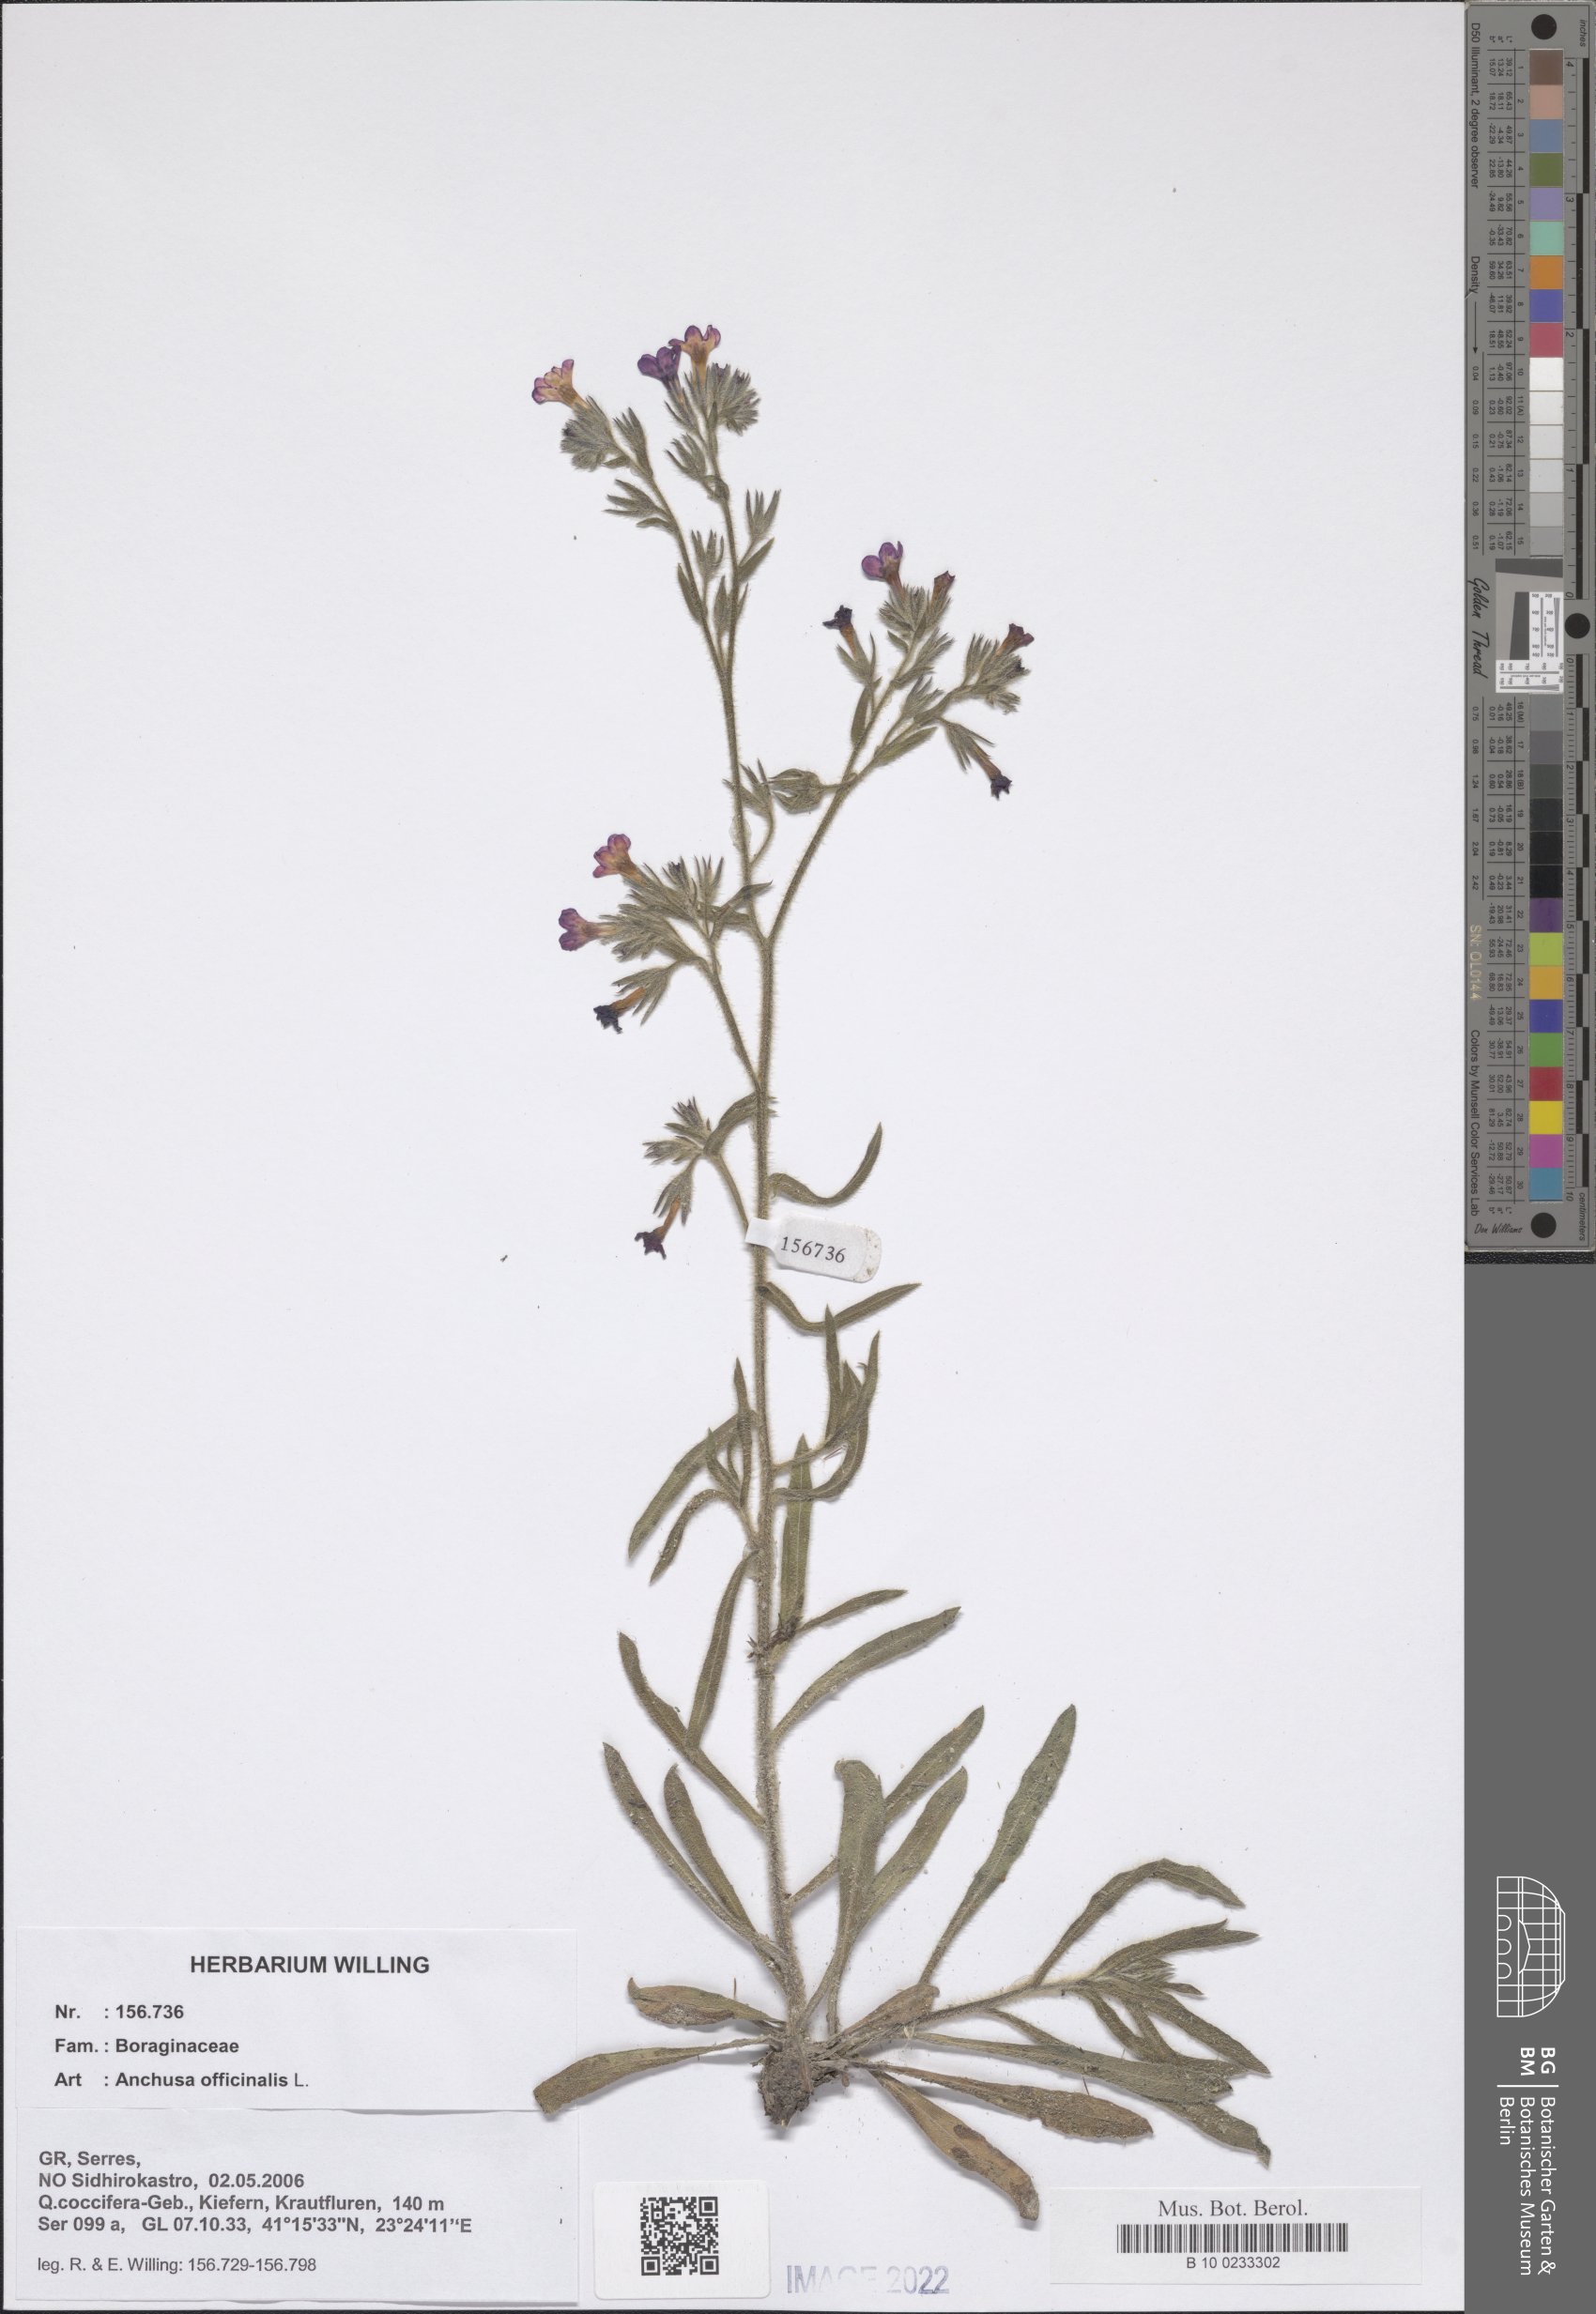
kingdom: Plantae
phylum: Tracheophyta
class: Magnoliopsida
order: Boraginales
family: Boraginaceae
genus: Anchusa
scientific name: Anchusa officinalis
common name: Alkanet
